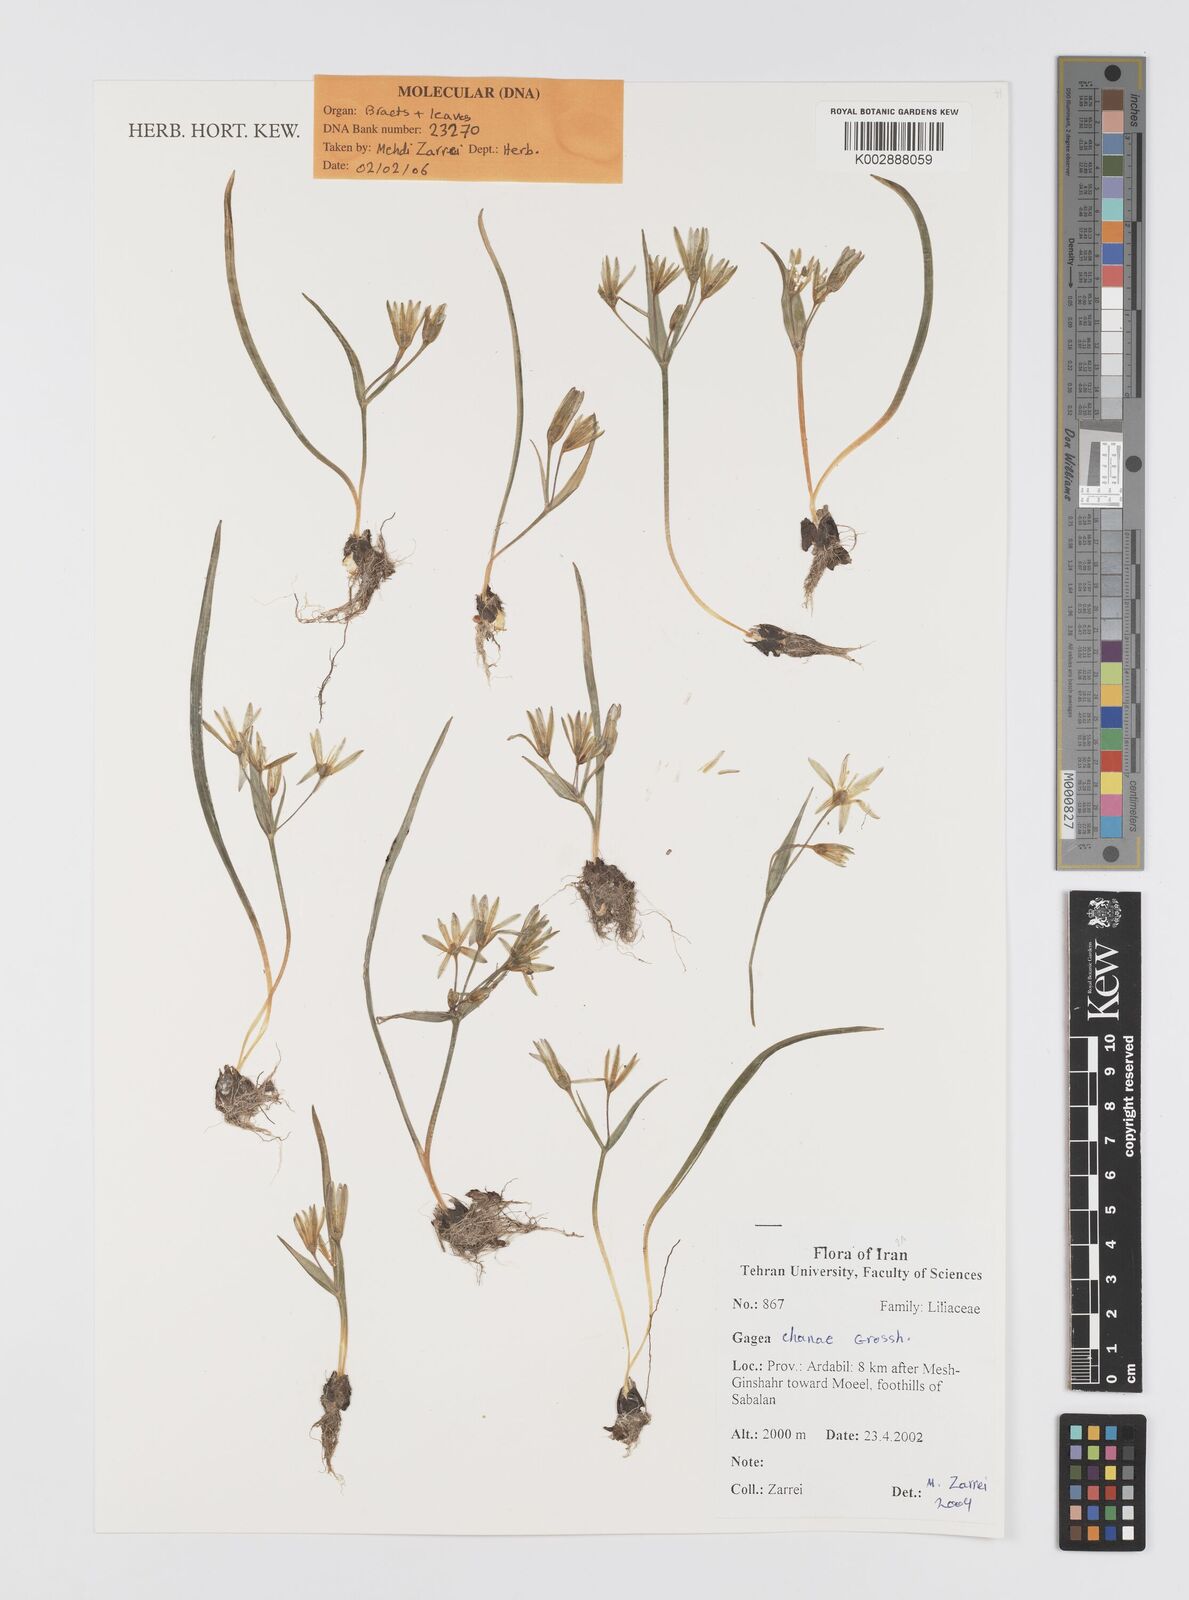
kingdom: Plantae
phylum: Tracheophyta
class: Liliopsida
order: Liliales
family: Liliaceae
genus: Gagea
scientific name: Gagea chanae
